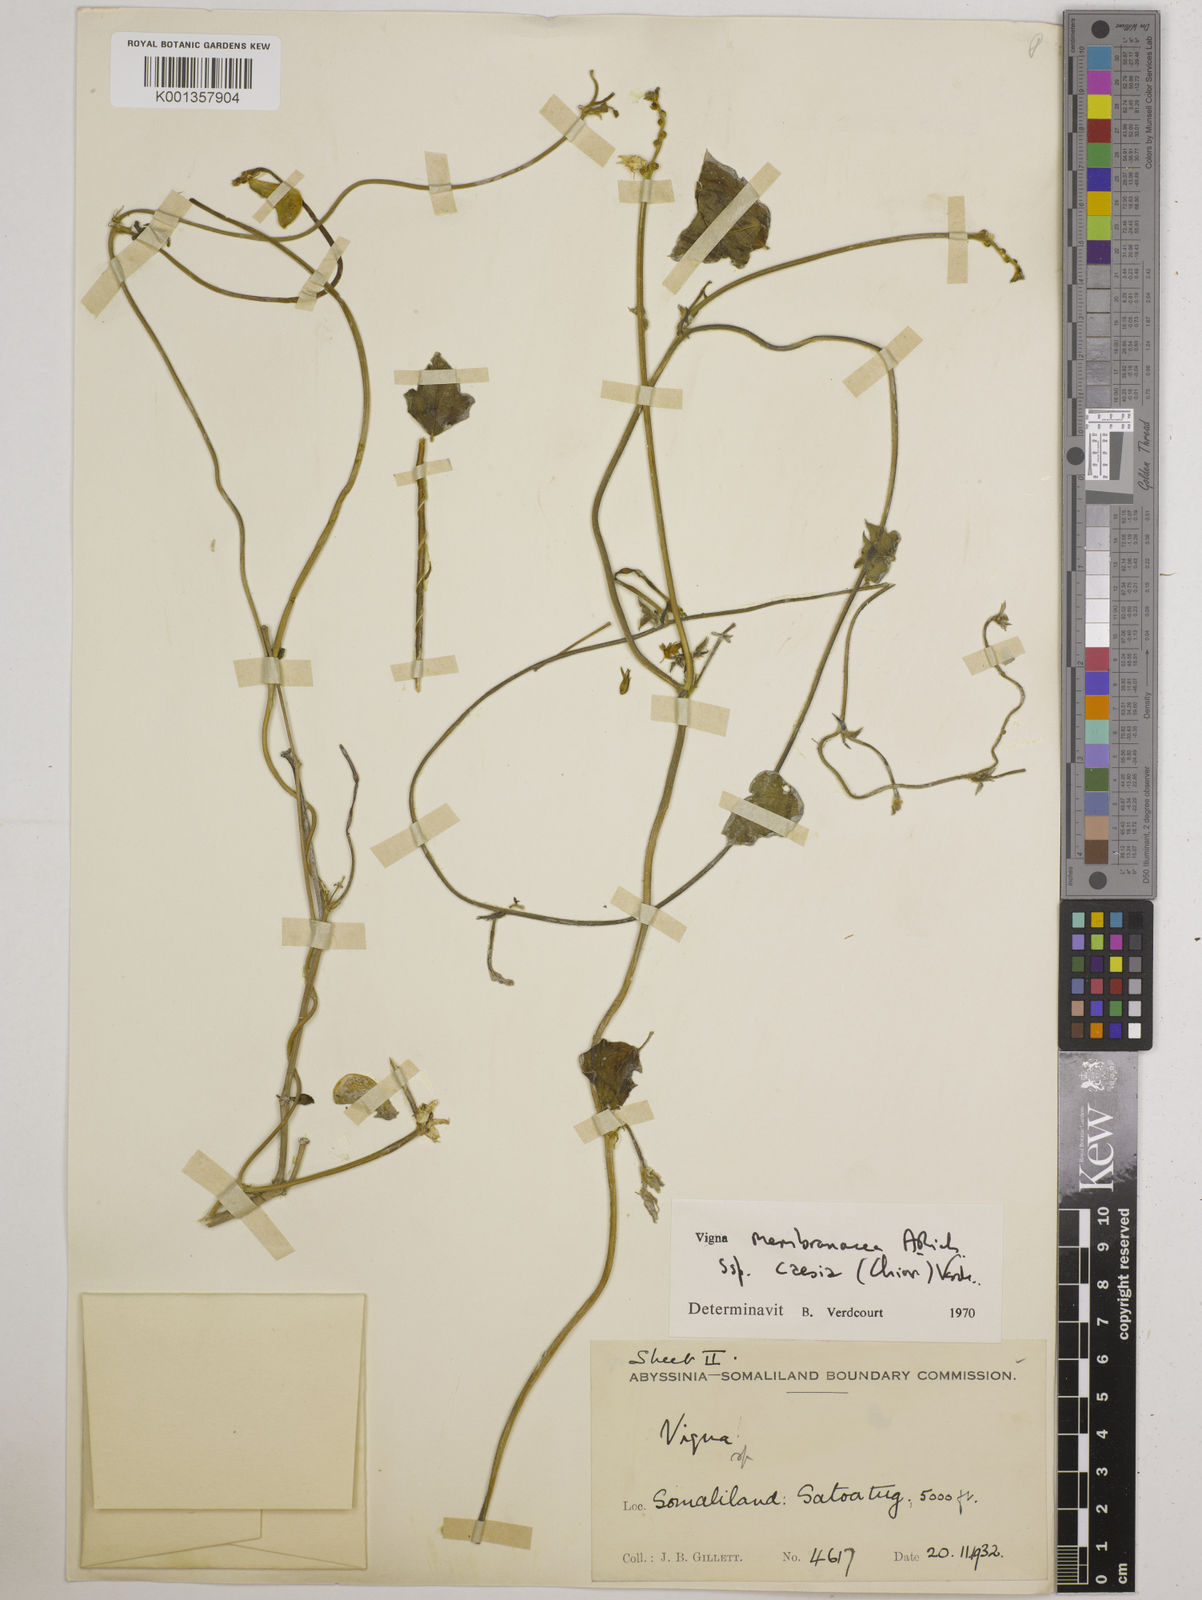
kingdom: Plantae
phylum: Tracheophyta
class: Magnoliopsida
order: Fabales
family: Fabaceae
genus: Vigna
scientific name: Vigna
